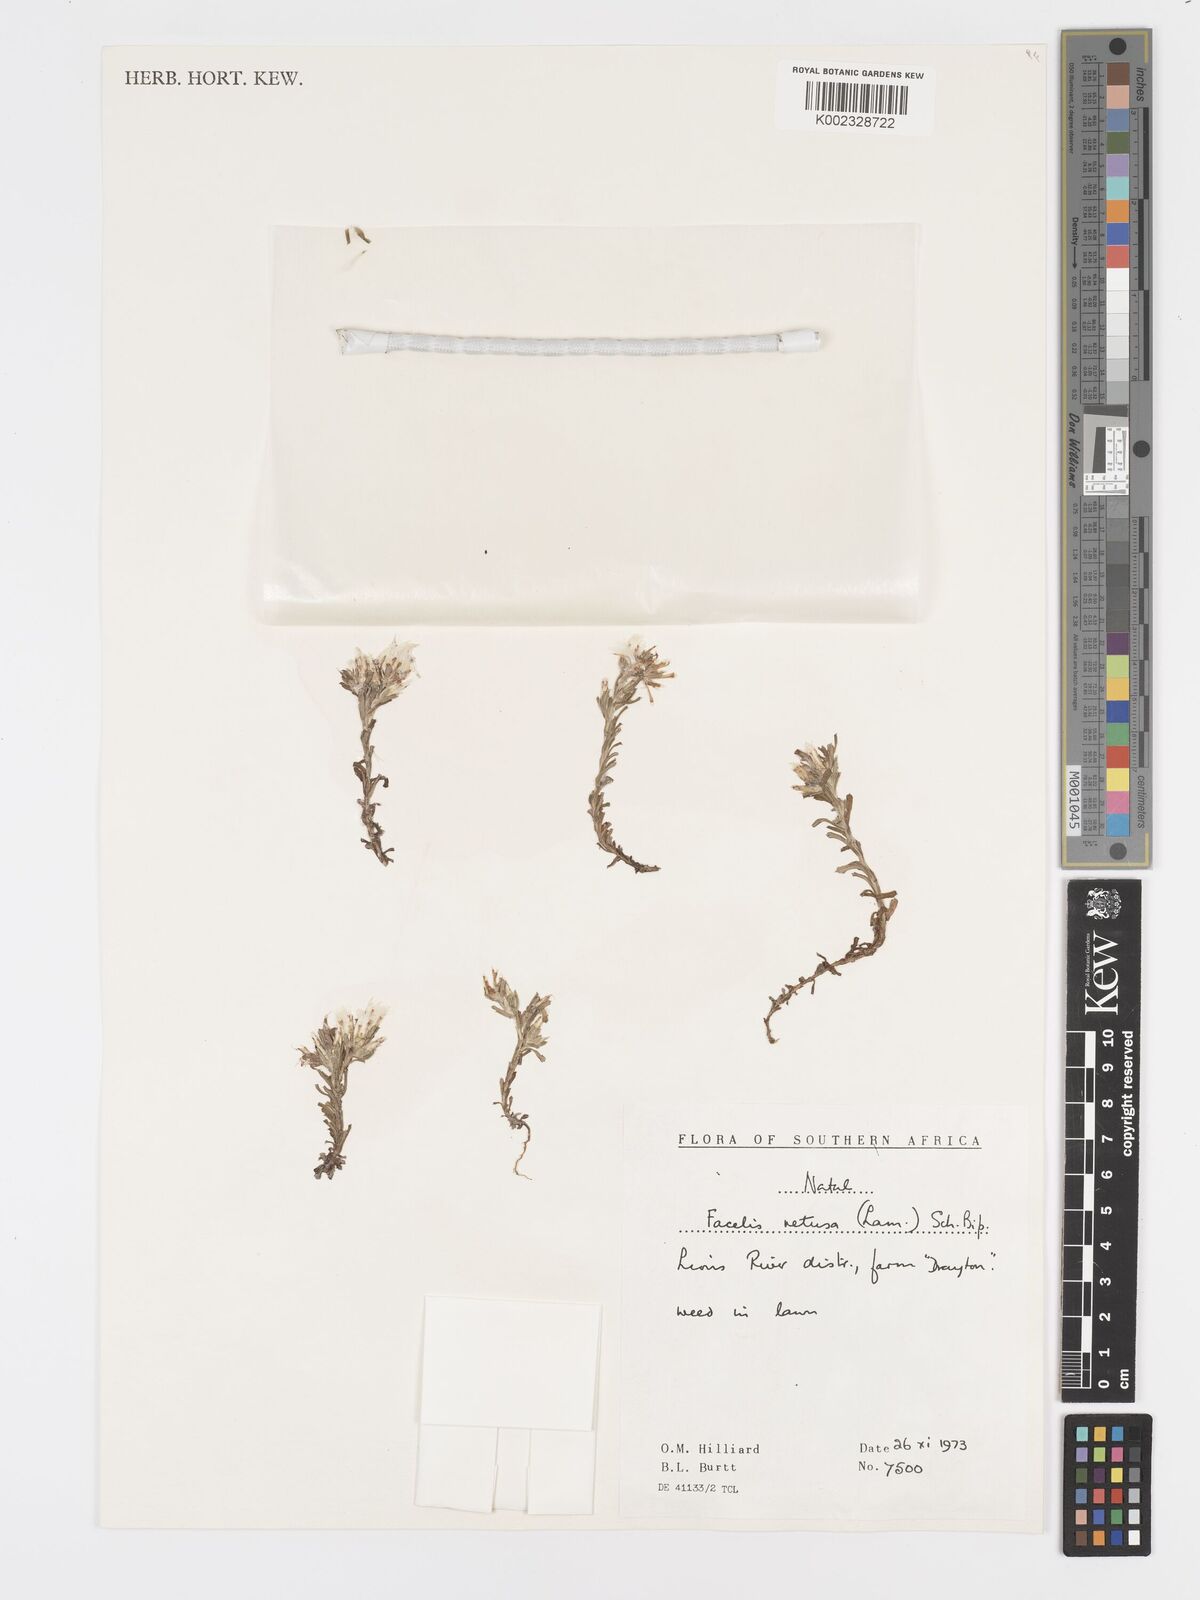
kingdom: Plantae
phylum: Tracheophyta
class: Magnoliopsida
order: Asterales
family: Asteraceae
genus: Facelis
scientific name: Facelis retusa
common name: Annual trampweed
